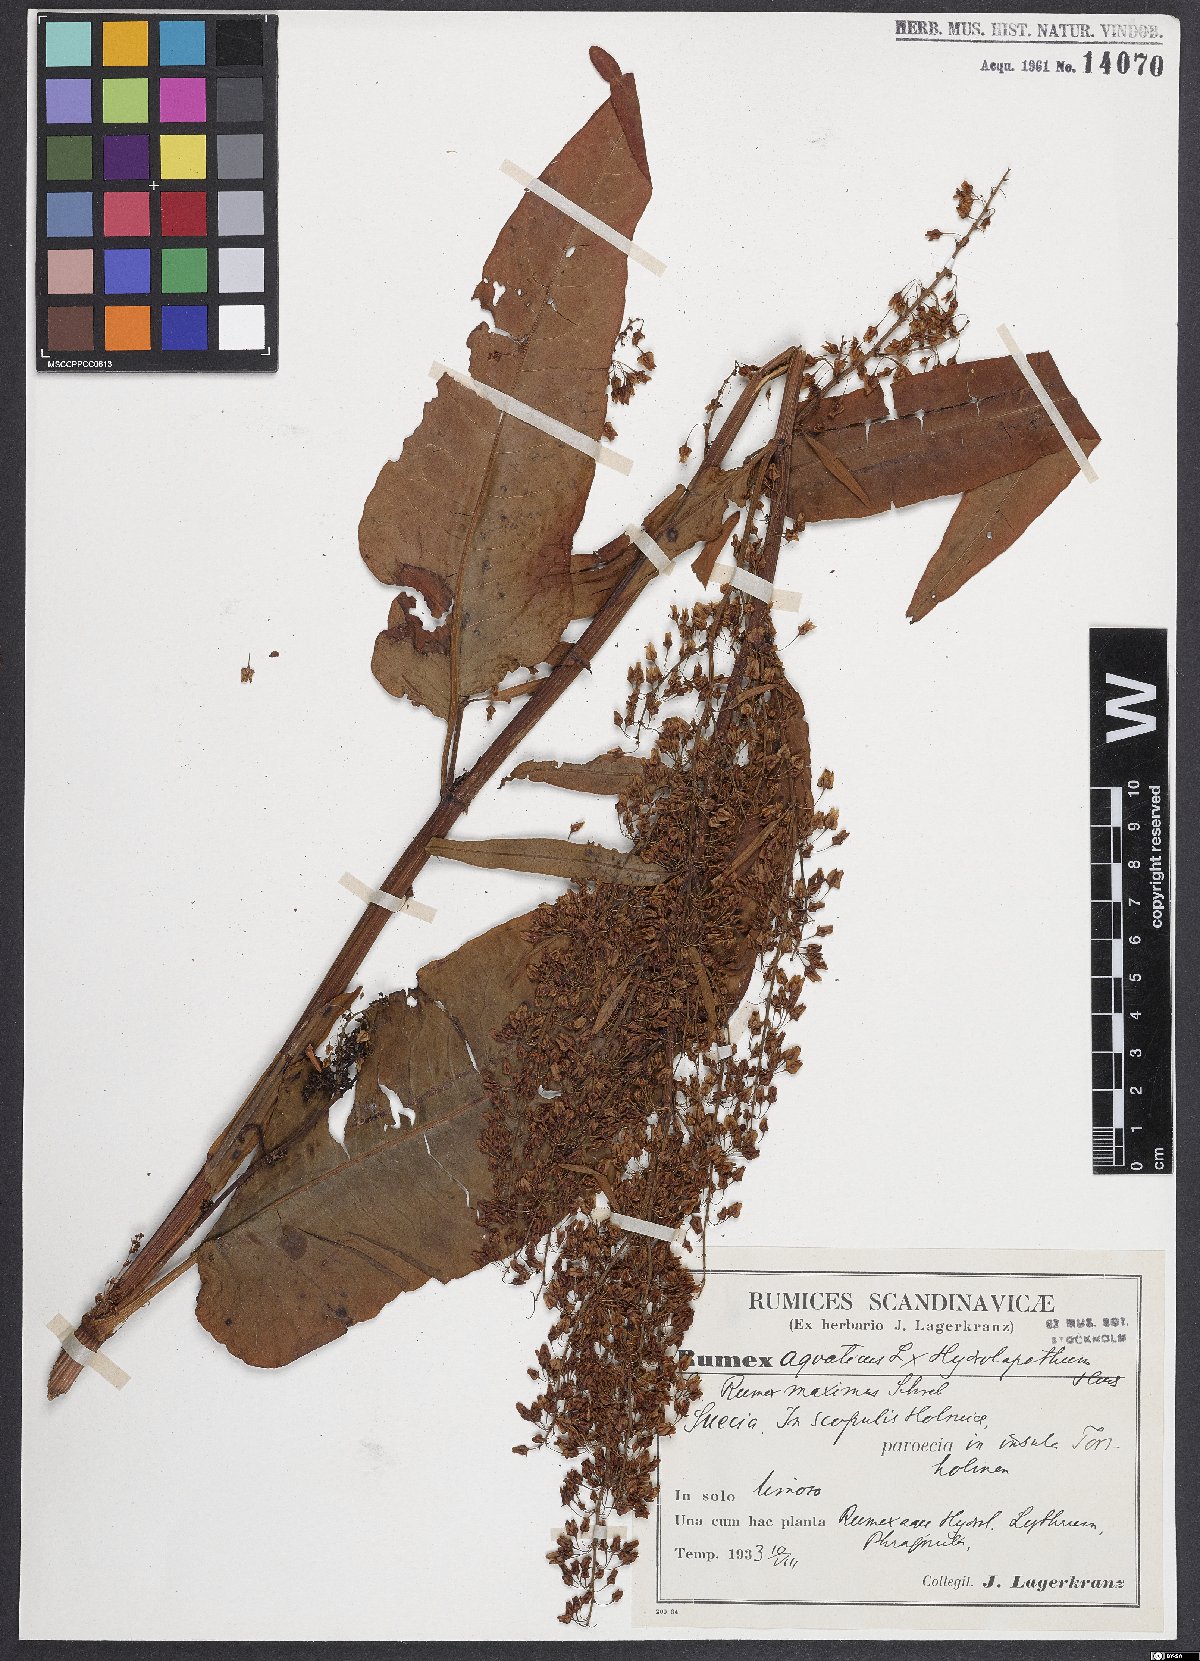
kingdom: Plantae
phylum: Tracheophyta
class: Magnoliopsida
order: Caryophyllales
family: Polygonaceae
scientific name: Polygonaceae
